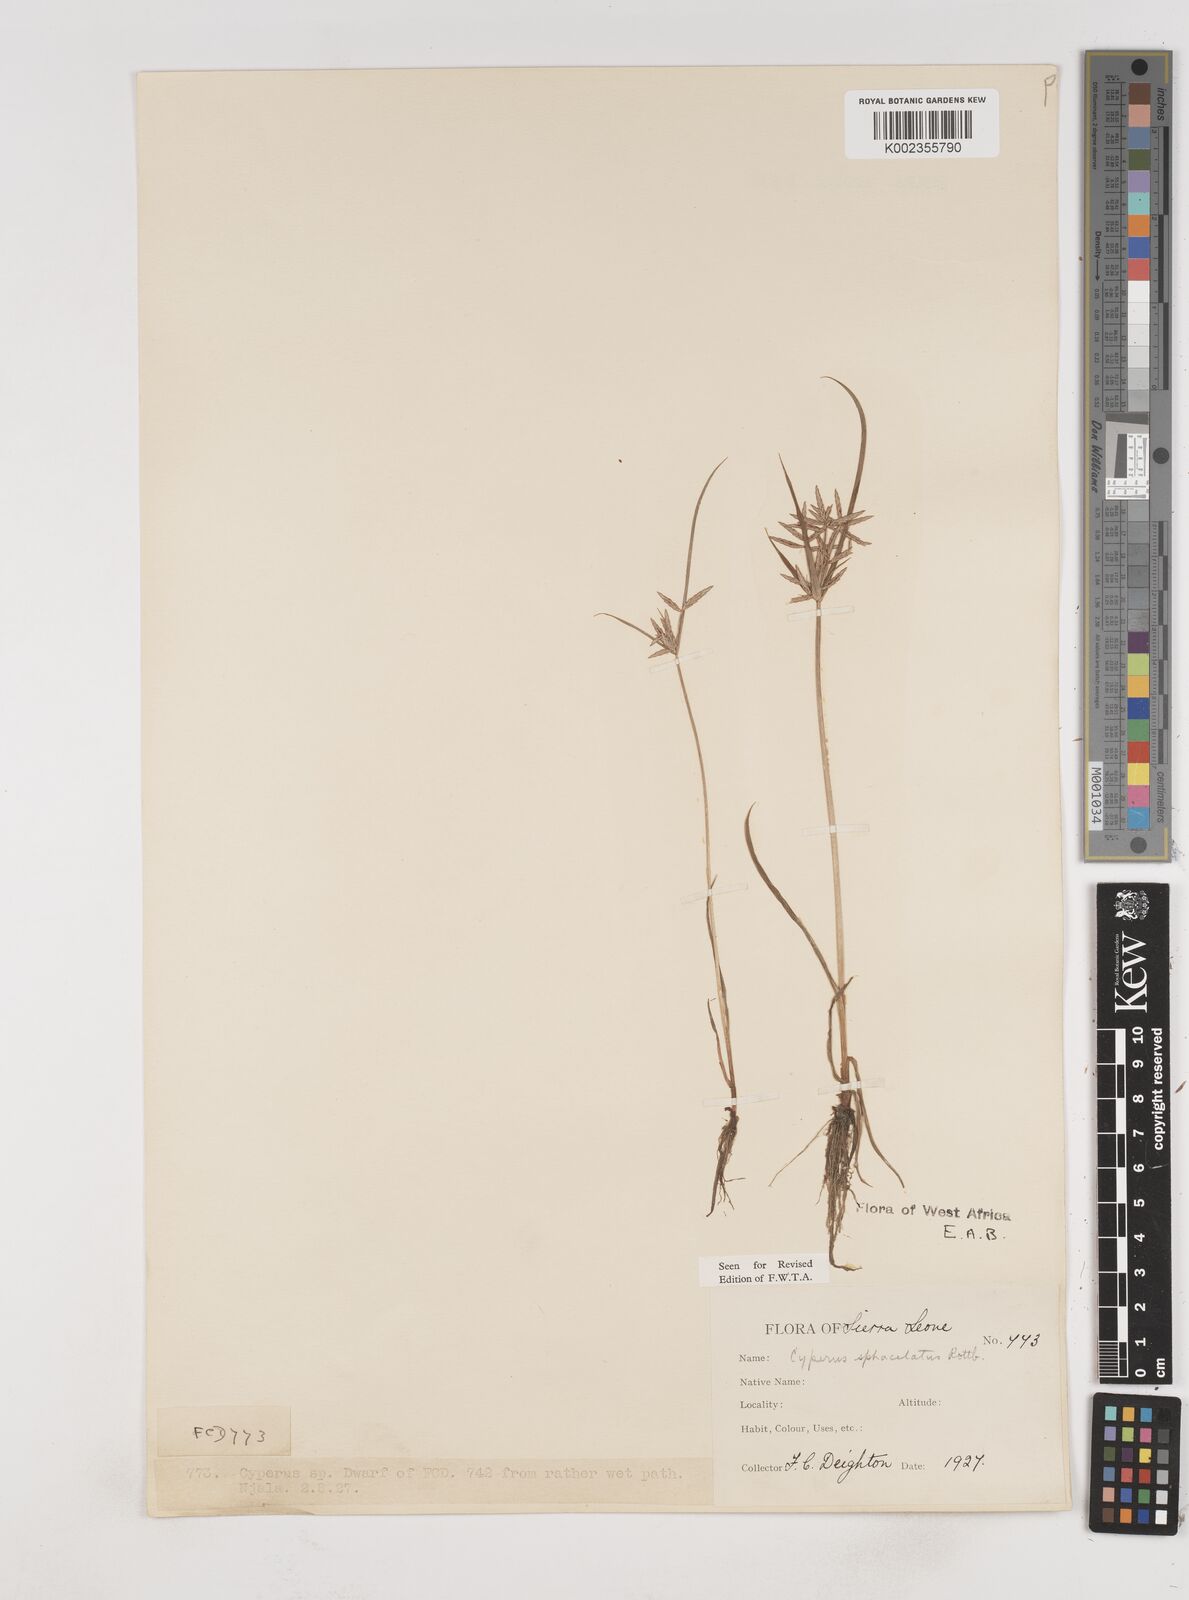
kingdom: Plantae
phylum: Tracheophyta
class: Liliopsida
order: Poales
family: Cyperaceae
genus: Cyperus
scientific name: Cyperus sphacelatus
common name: Roadside flatsedge
